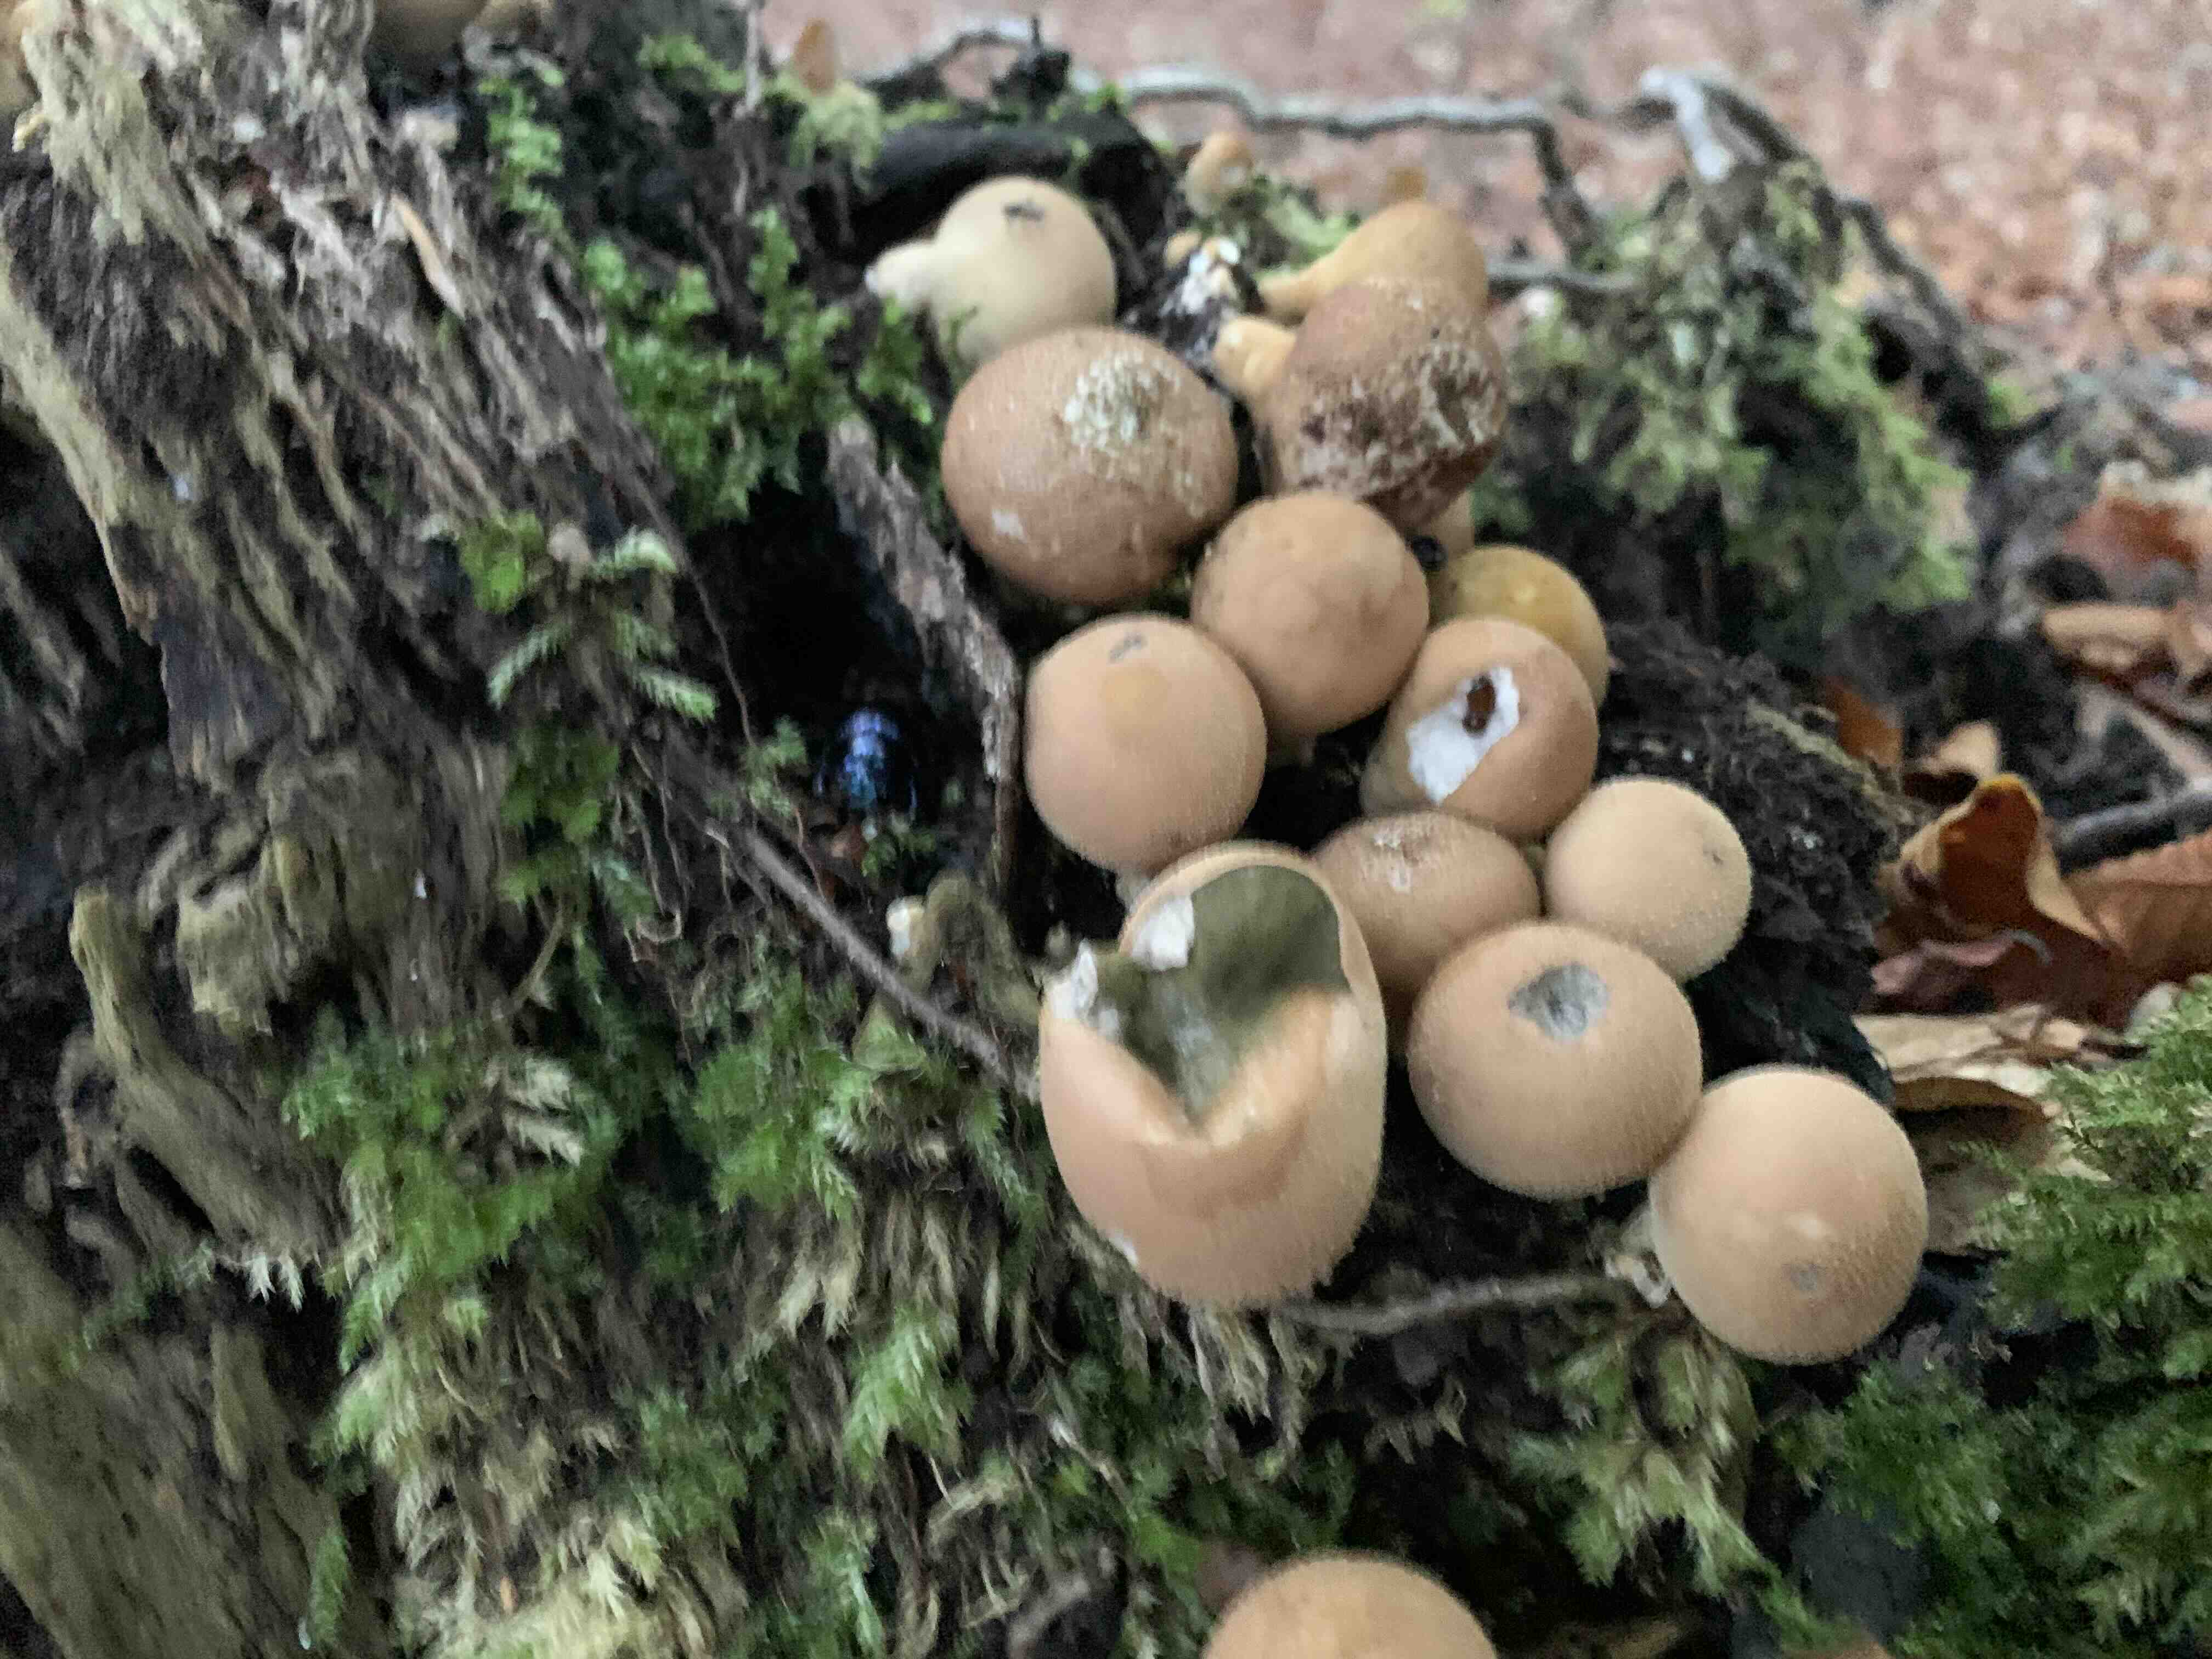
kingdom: Fungi
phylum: Basidiomycota
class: Agaricomycetes
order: Agaricales
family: Lycoperdaceae
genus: Apioperdon
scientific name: Apioperdon pyriforme
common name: pære-støvbold
